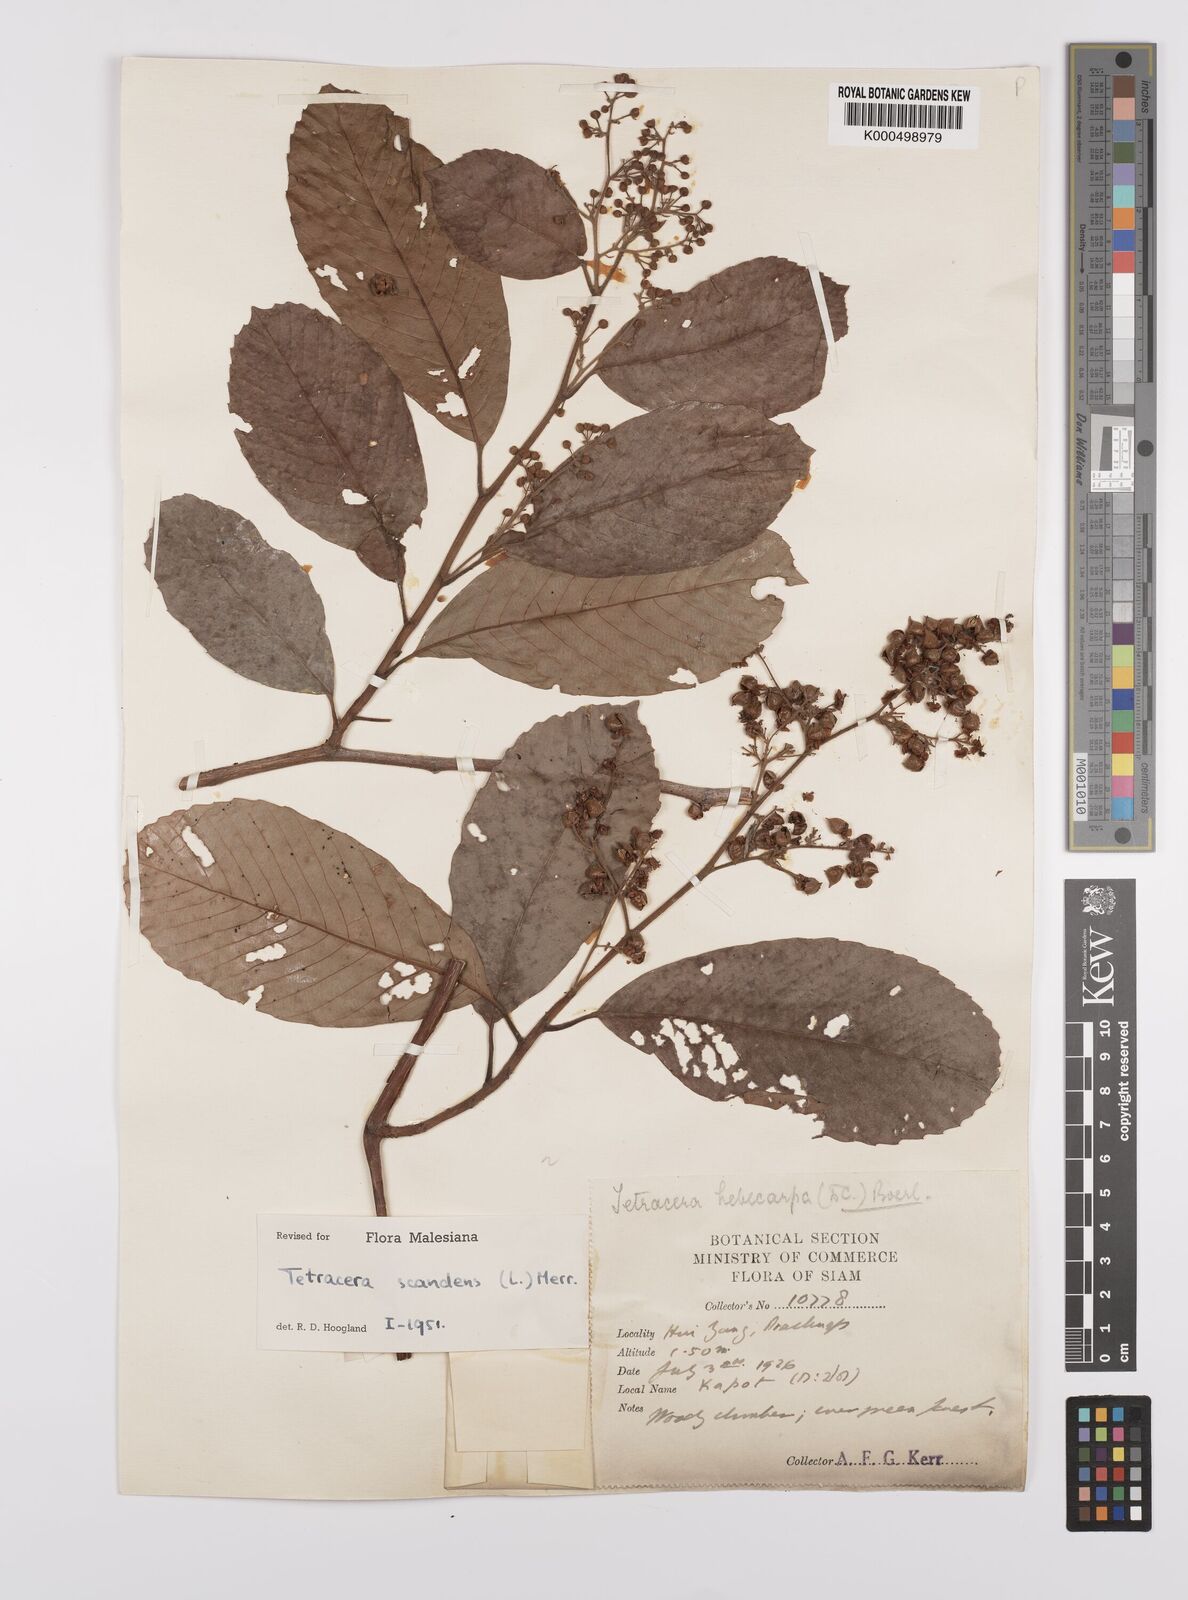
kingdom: Plantae
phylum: Tracheophyta
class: Magnoliopsida
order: Dilleniales
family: Dilleniaceae
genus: Tetracera
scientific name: Tetracera scandens
